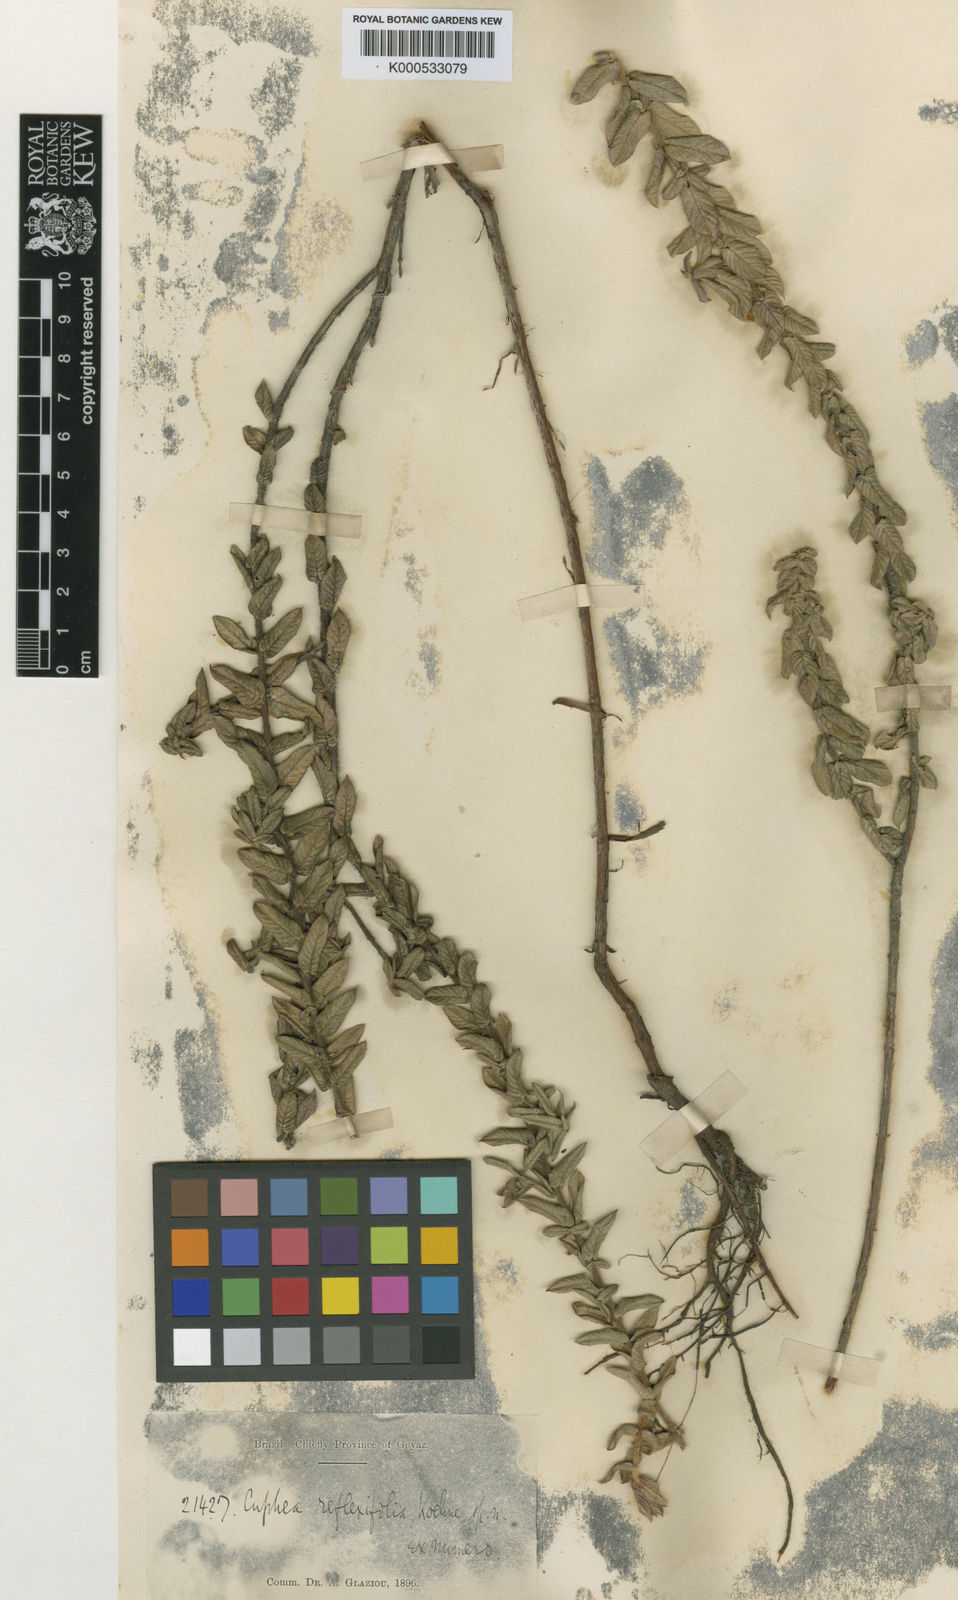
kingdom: Plantae
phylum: Tracheophyta
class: Magnoliopsida
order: Myrtales
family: Lythraceae
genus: Cuphea
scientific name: Cuphea sessiliflora
